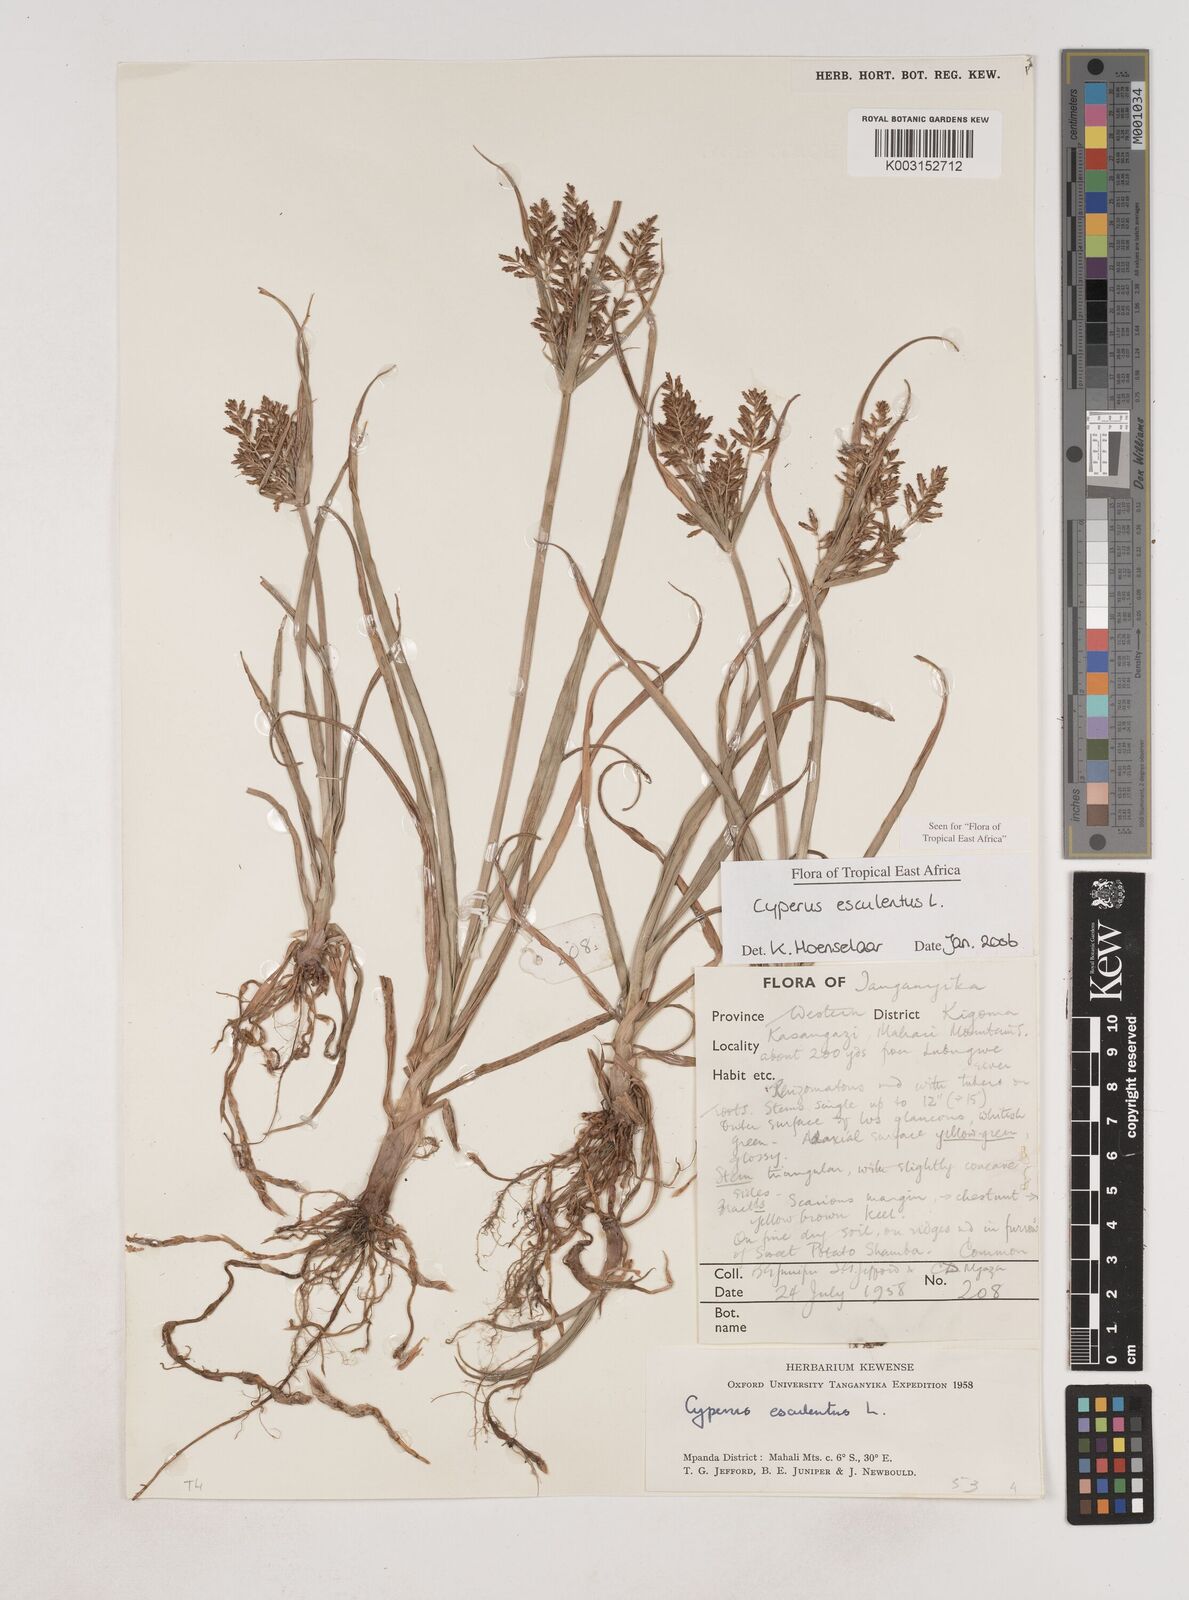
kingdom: Plantae
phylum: Tracheophyta
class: Liliopsida
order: Poales
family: Cyperaceae
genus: Cyperus
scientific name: Cyperus esculentus
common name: Yellow nutsedge
